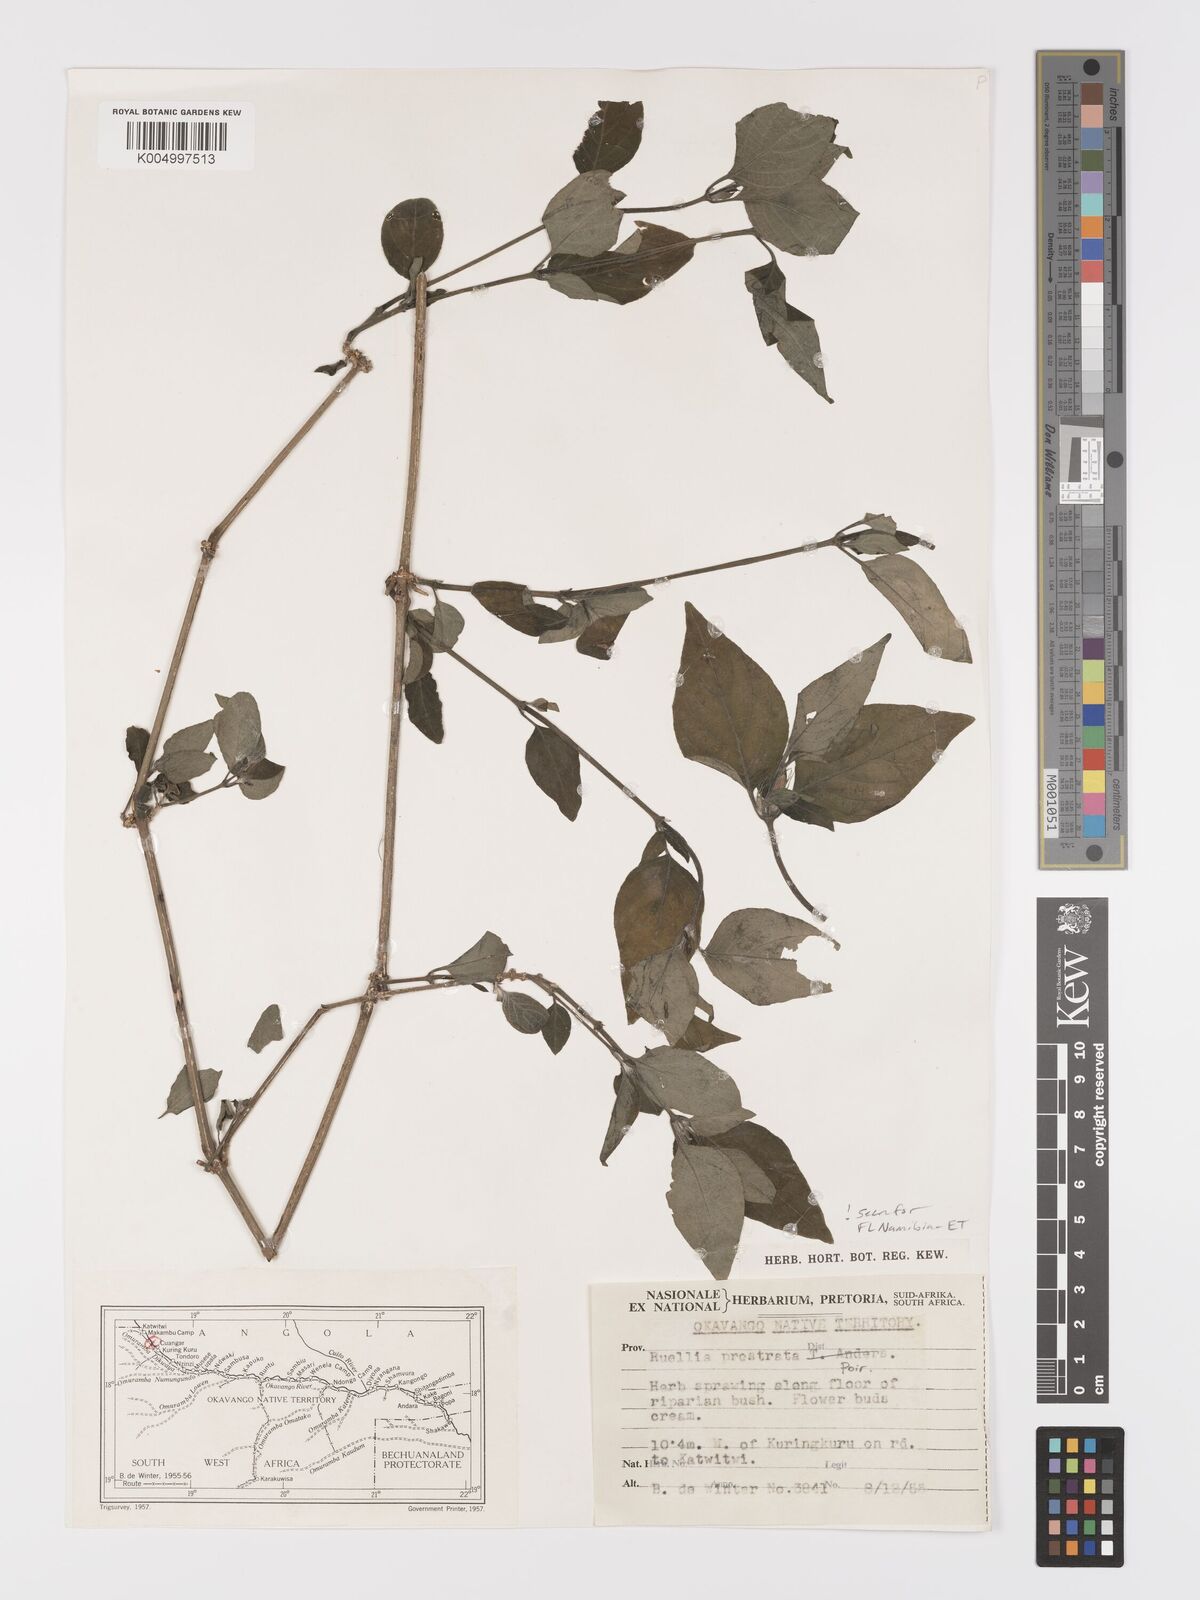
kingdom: Plantae
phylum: Tracheophyta
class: Magnoliopsida
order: Lamiales
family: Acanthaceae
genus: Ruellia
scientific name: Ruellia
